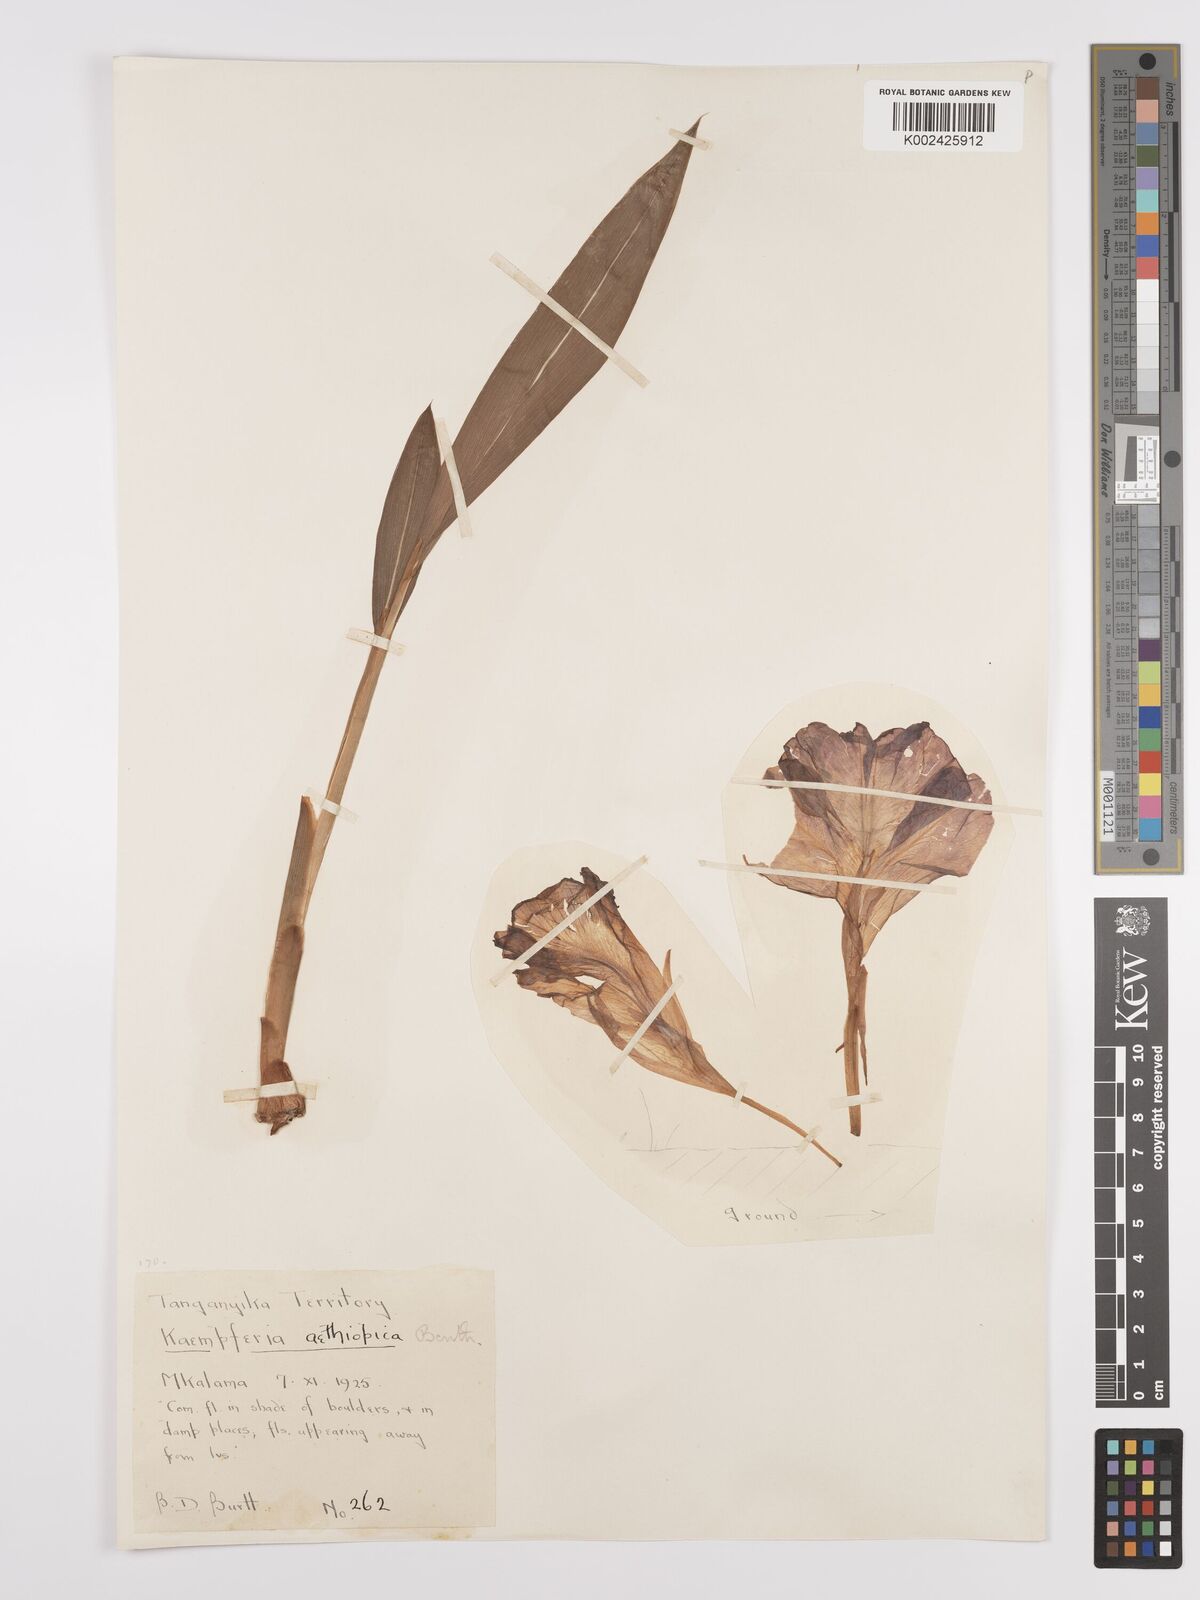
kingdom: Plantae
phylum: Tracheophyta
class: Liliopsida
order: Zingiberales
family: Zingiberaceae
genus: Siphonochilus
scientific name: Siphonochilus aethiopicus
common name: African-ginger
